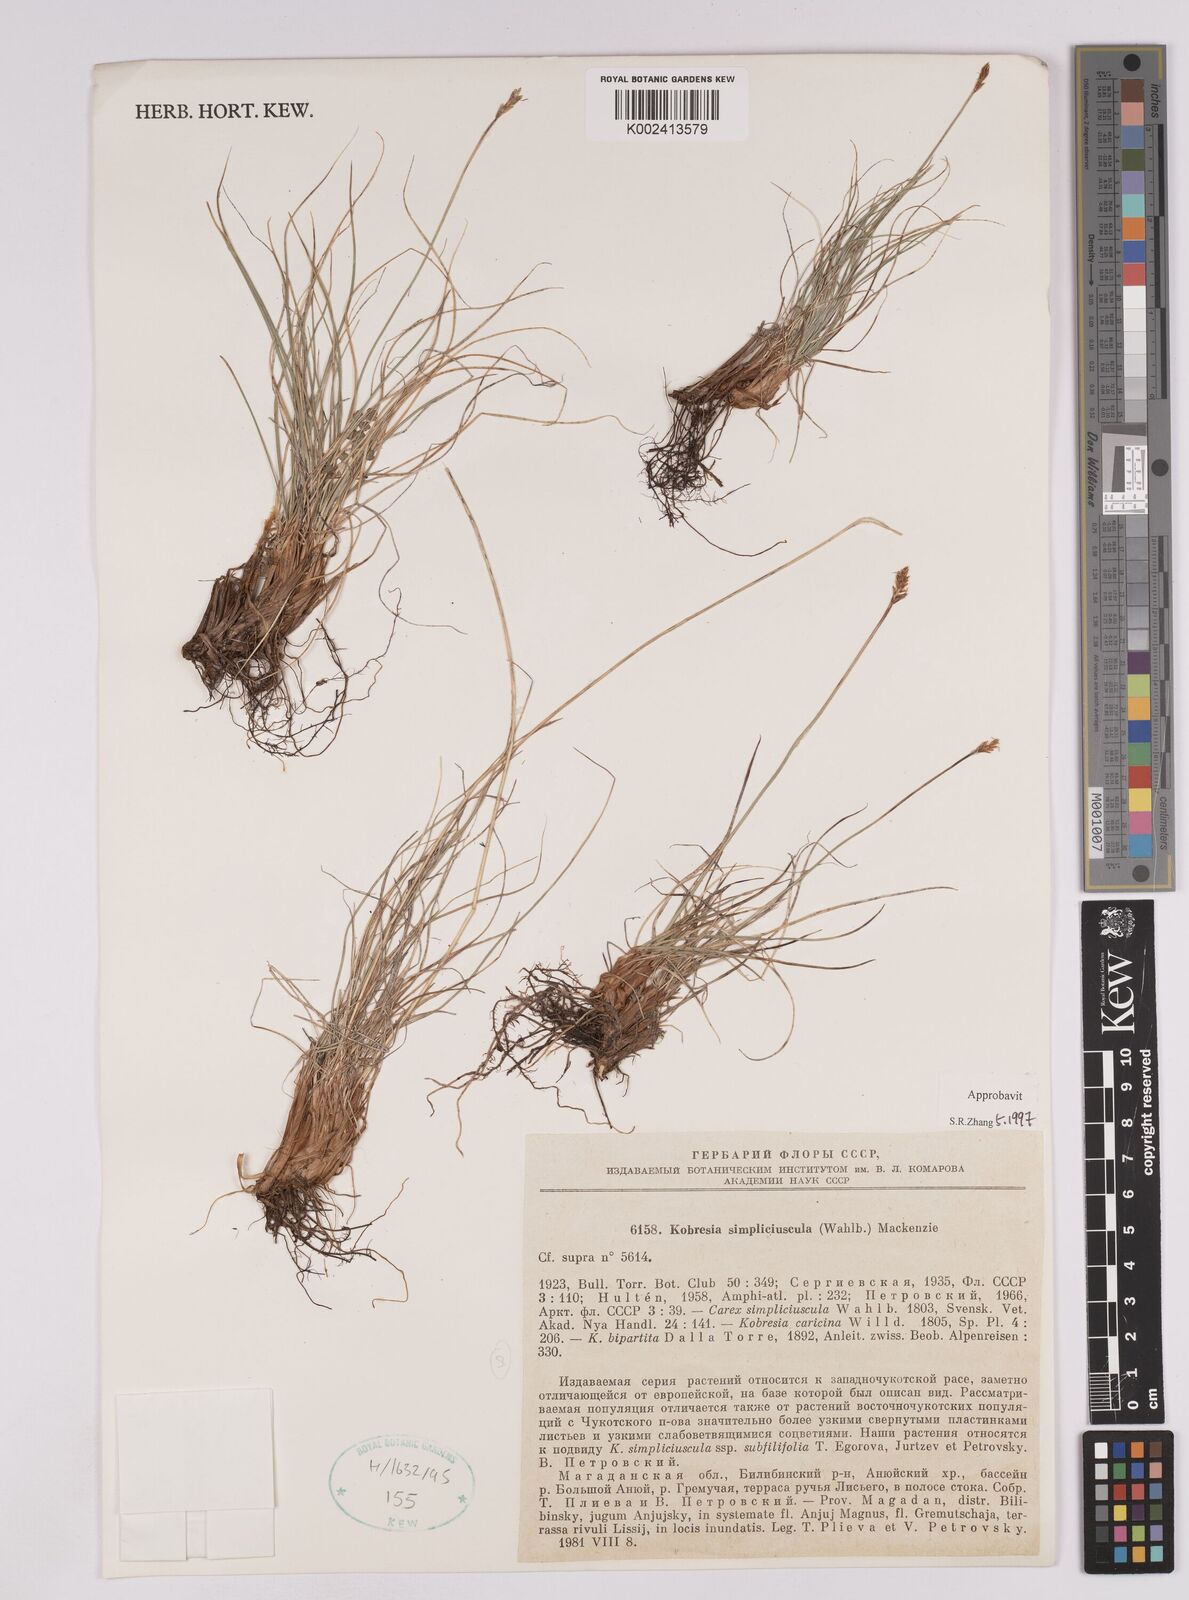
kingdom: Plantae
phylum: Tracheophyta
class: Liliopsida
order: Poales
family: Cyperaceae
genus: Carex
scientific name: Carex simpliciuscula
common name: Simple bog sedge
